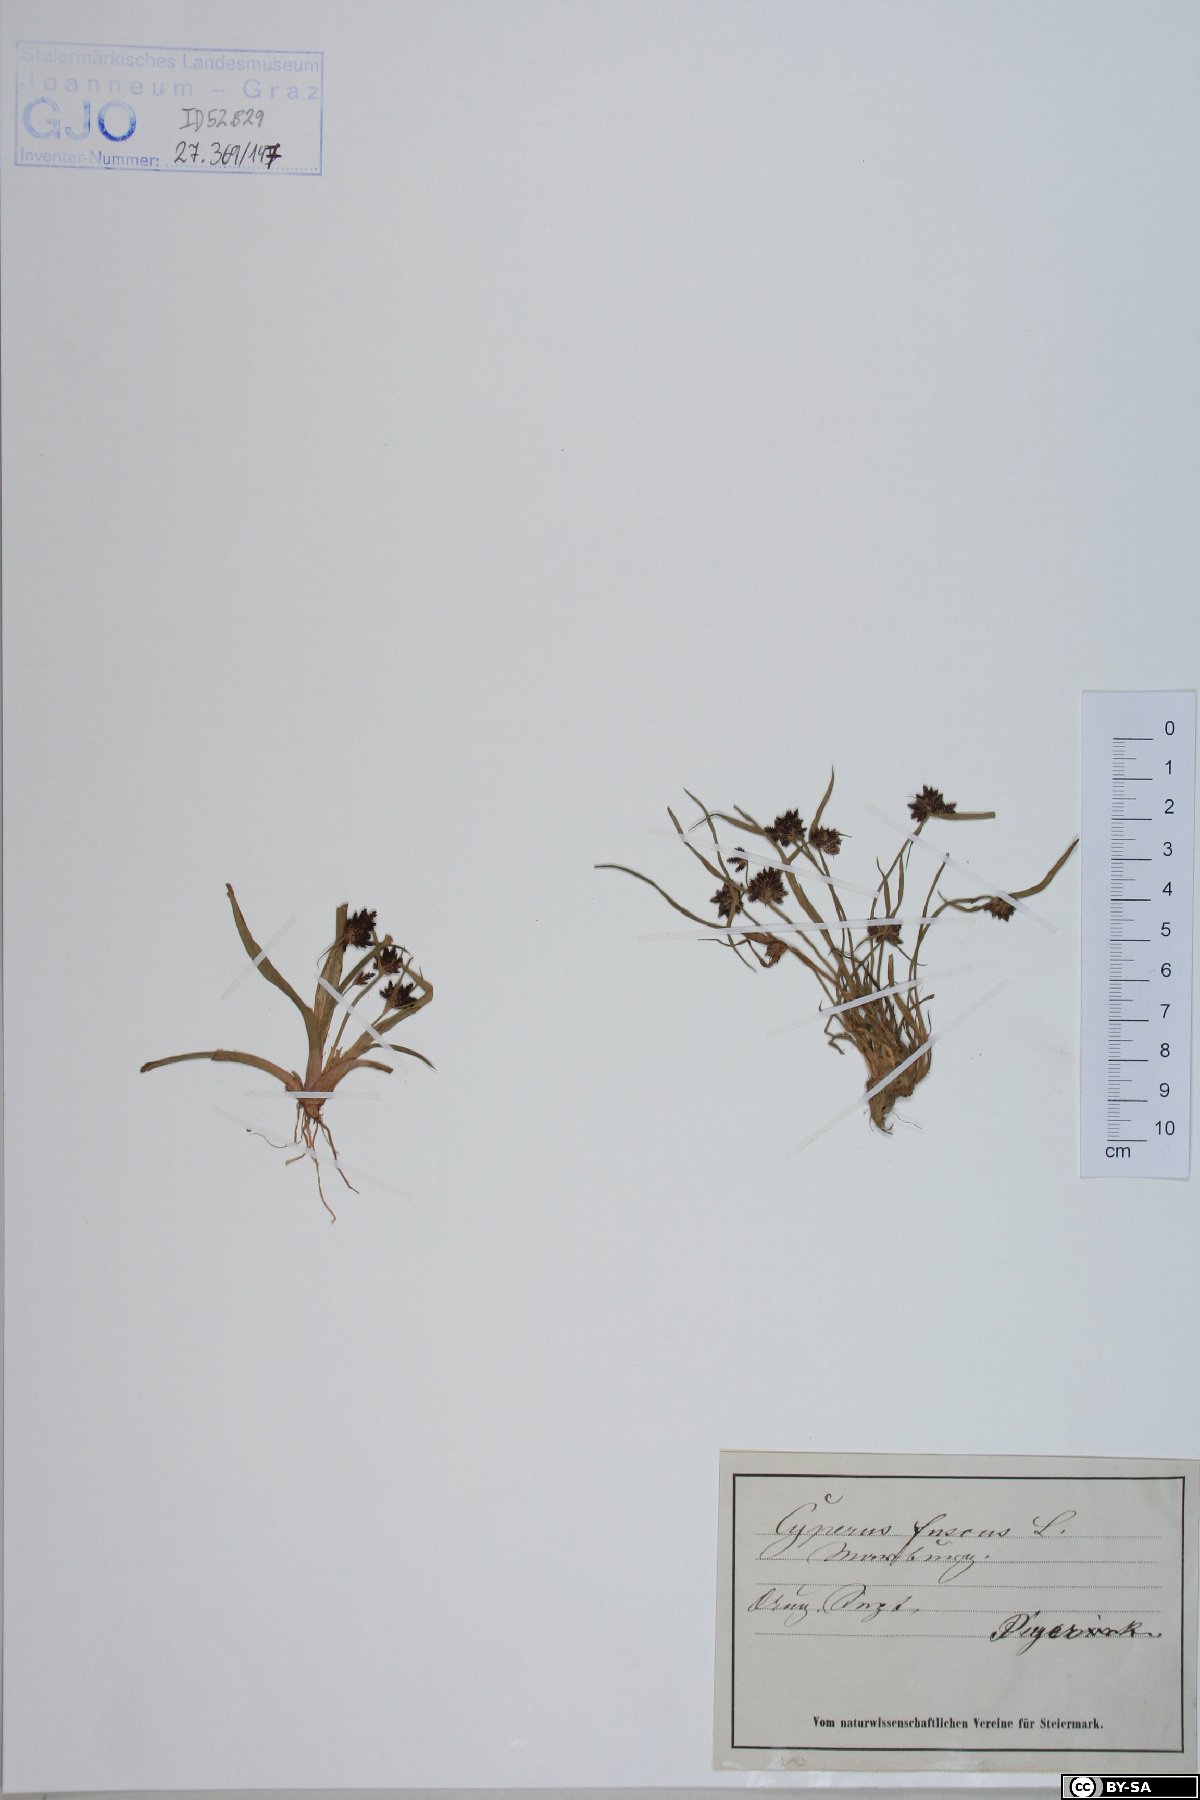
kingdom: Plantae
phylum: Tracheophyta
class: Liliopsida
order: Poales
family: Cyperaceae
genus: Cyperus
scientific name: Cyperus fuscus
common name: Brown galingale
